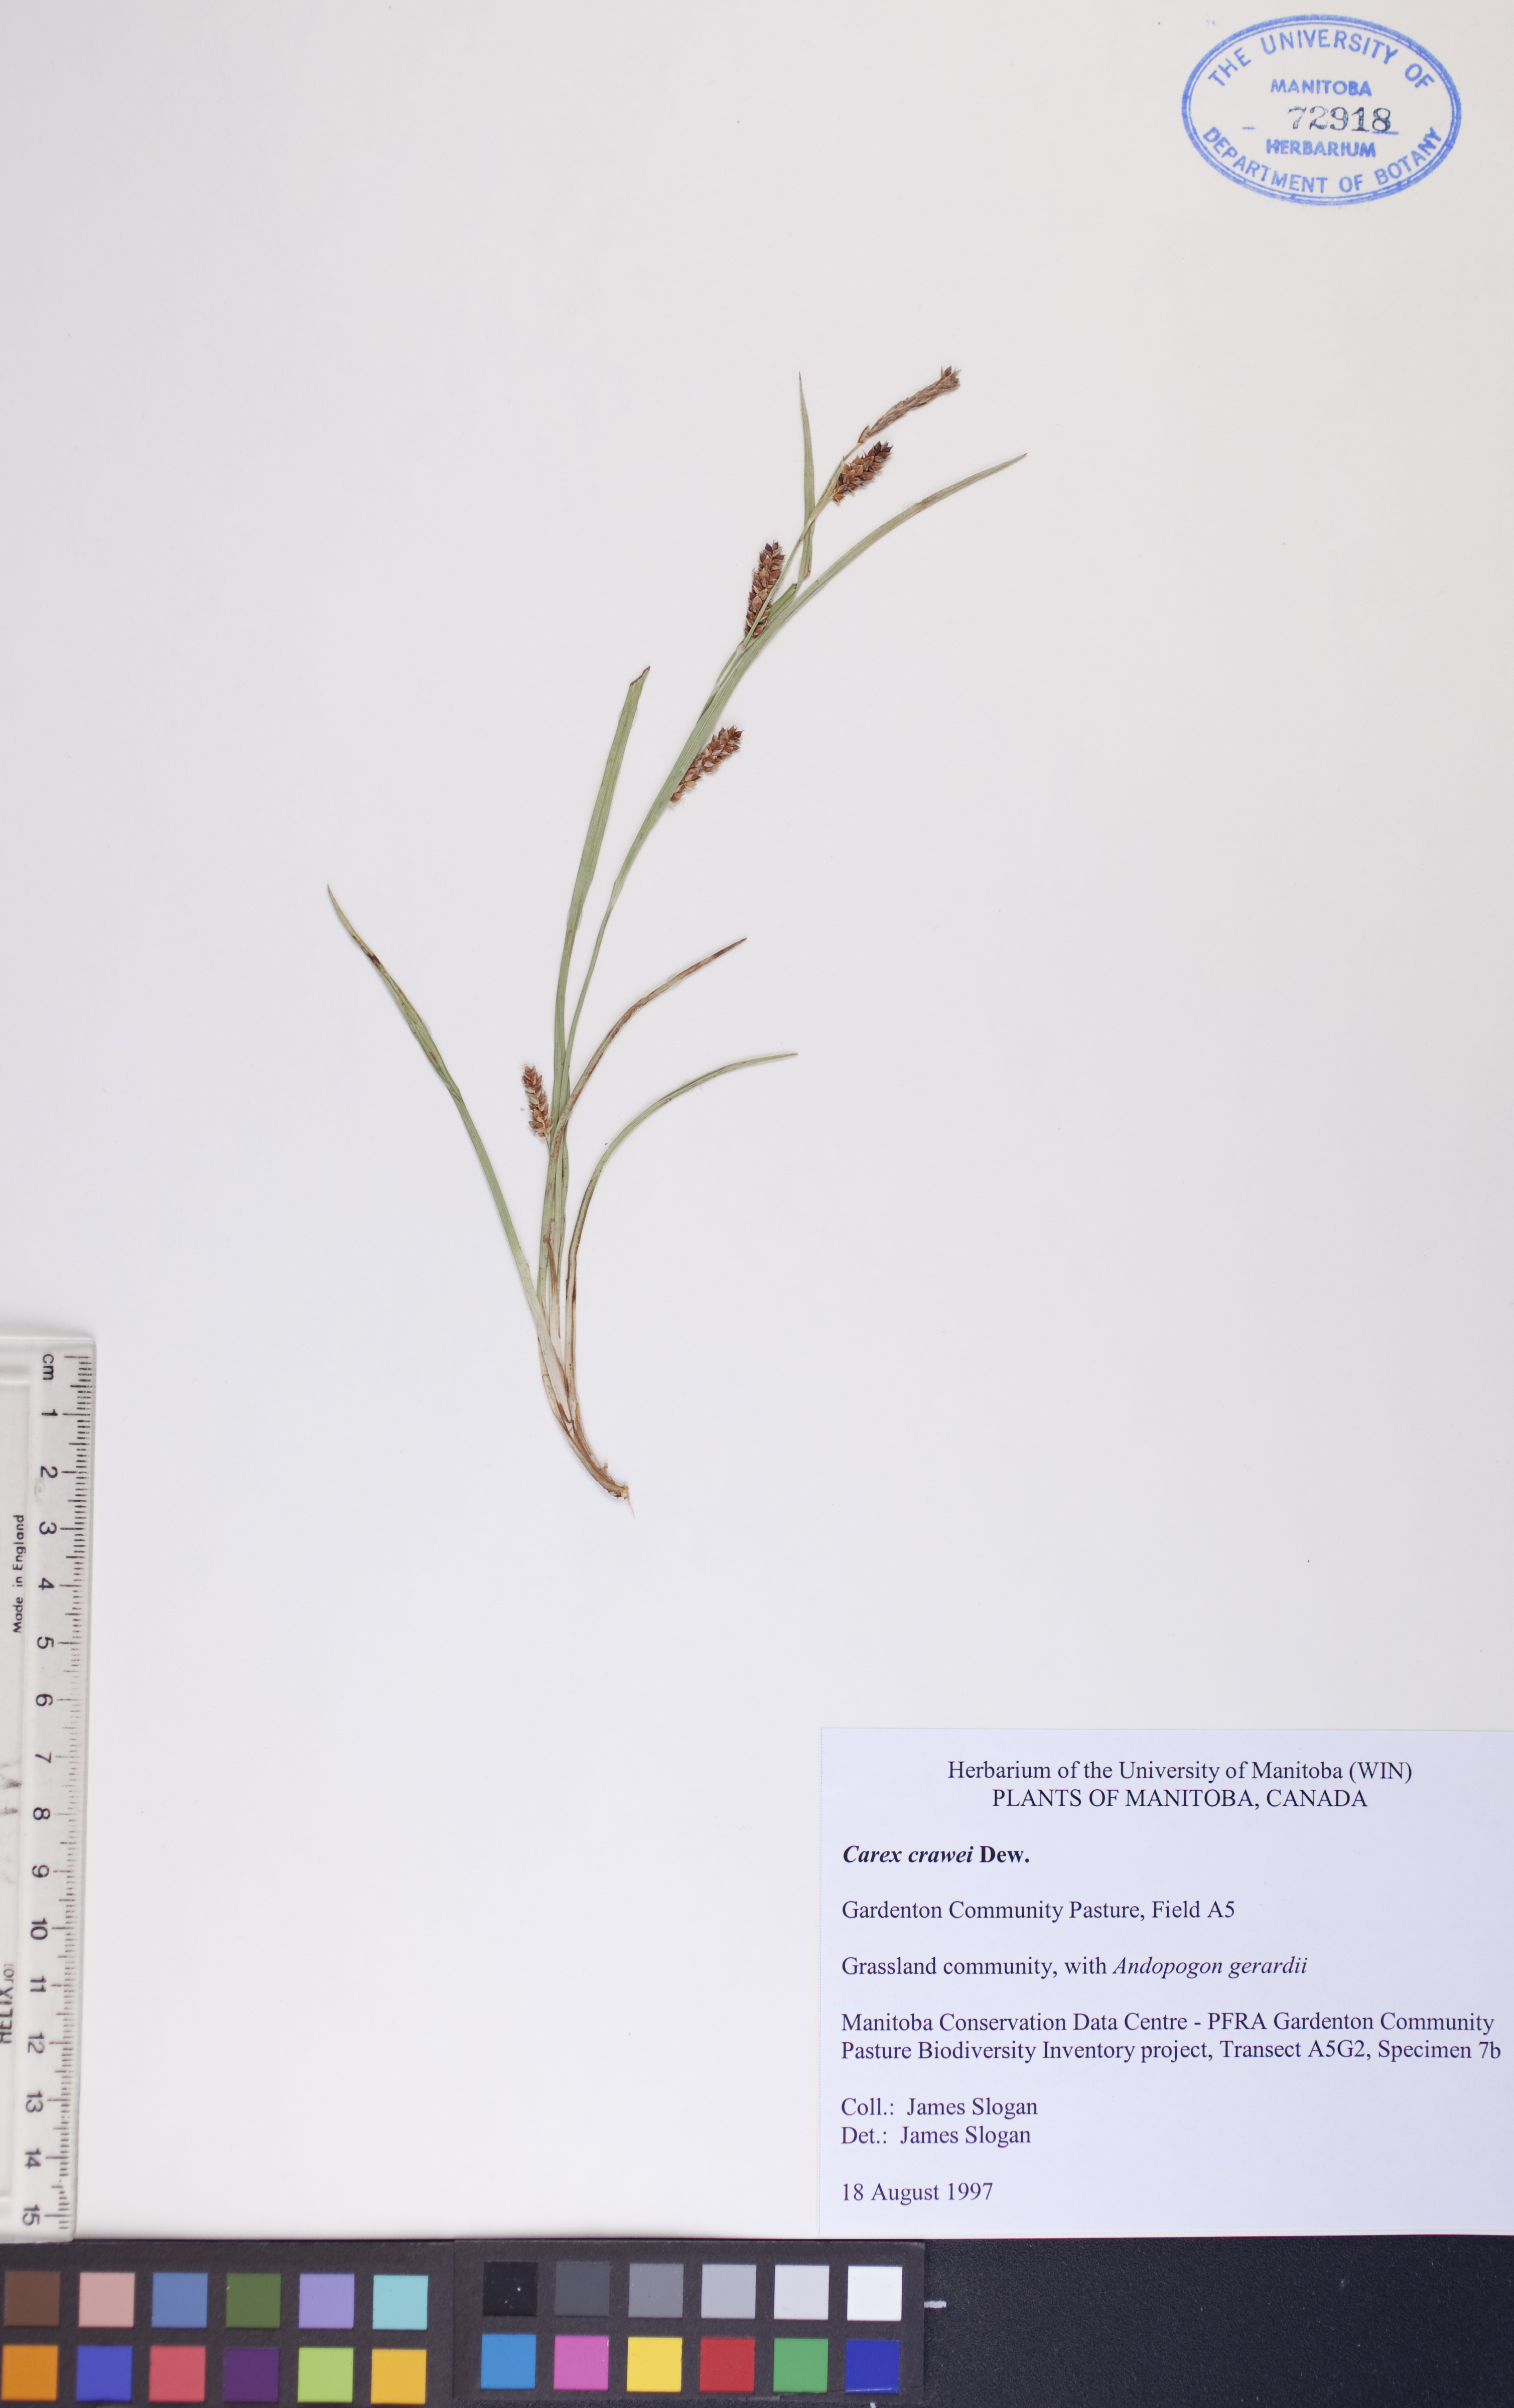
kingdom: Plantae
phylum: Tracheophyta
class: Liliopsida
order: Poales
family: Cyperaceae
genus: Carex
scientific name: Carex crawei
